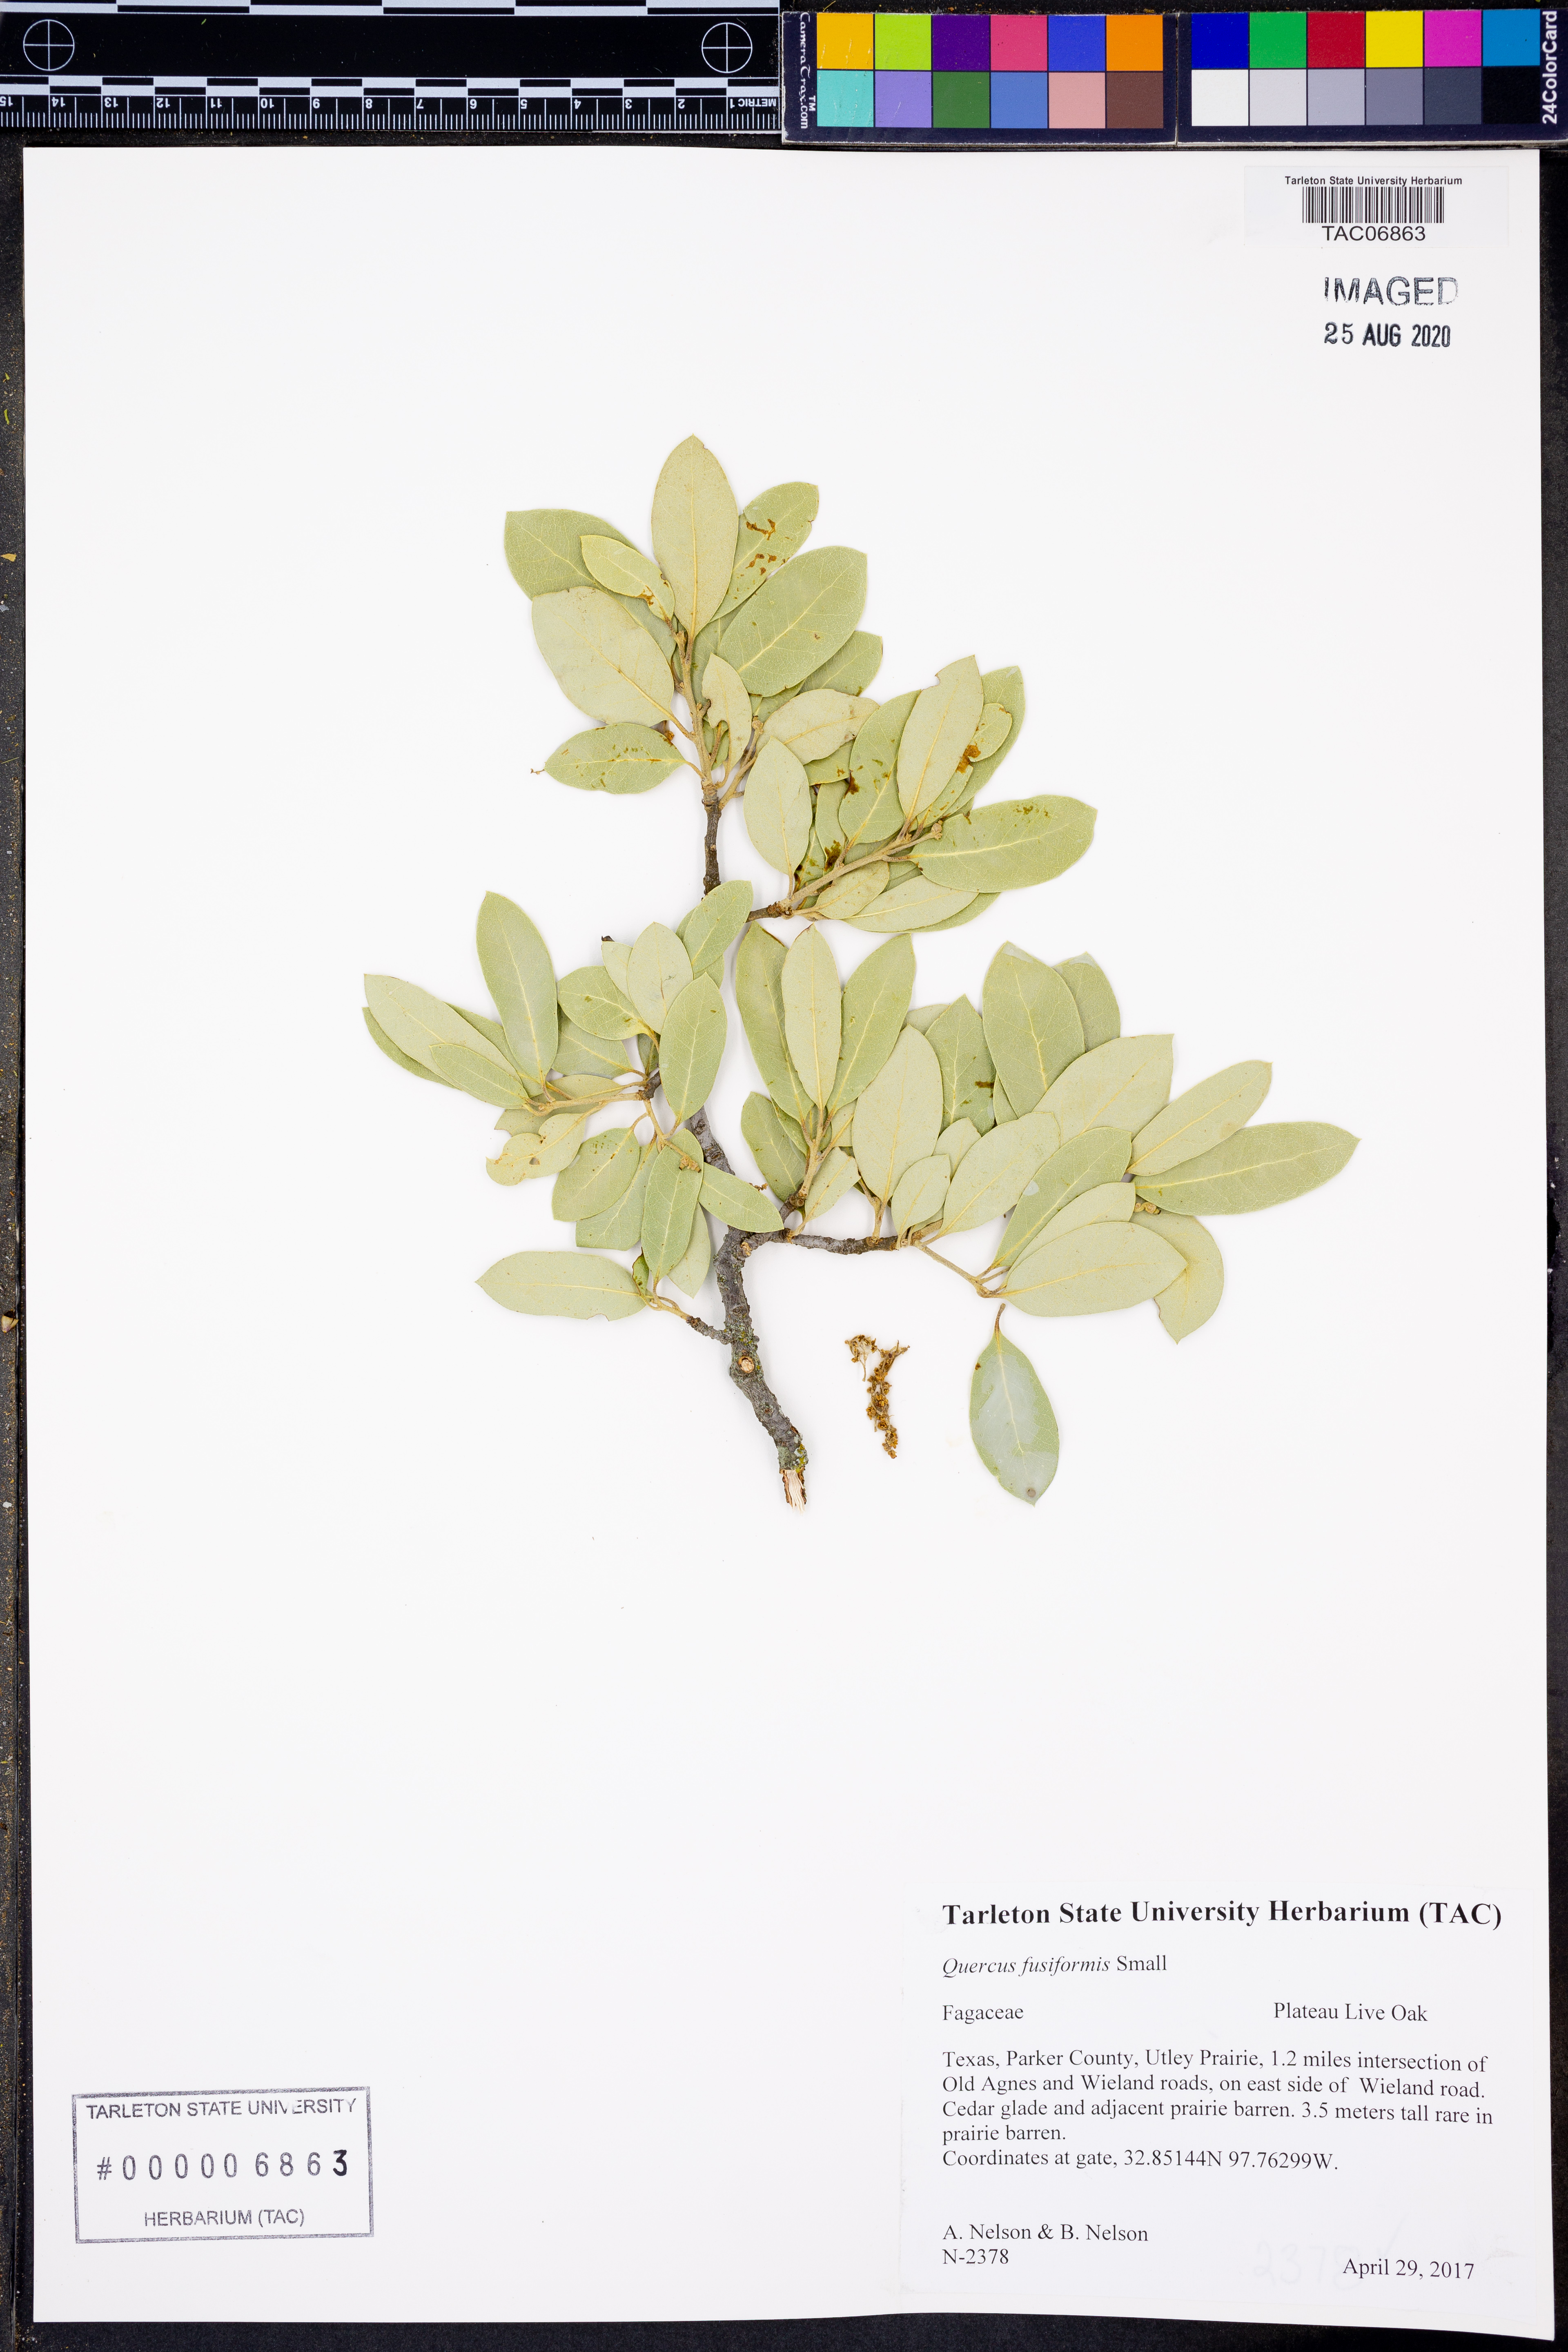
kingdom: Plantae
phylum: Tracheophyta
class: Magnoliopsida
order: Fagales
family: Fagaceae
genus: Quercus
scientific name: Quercus fusiformis
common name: Texas live oak
